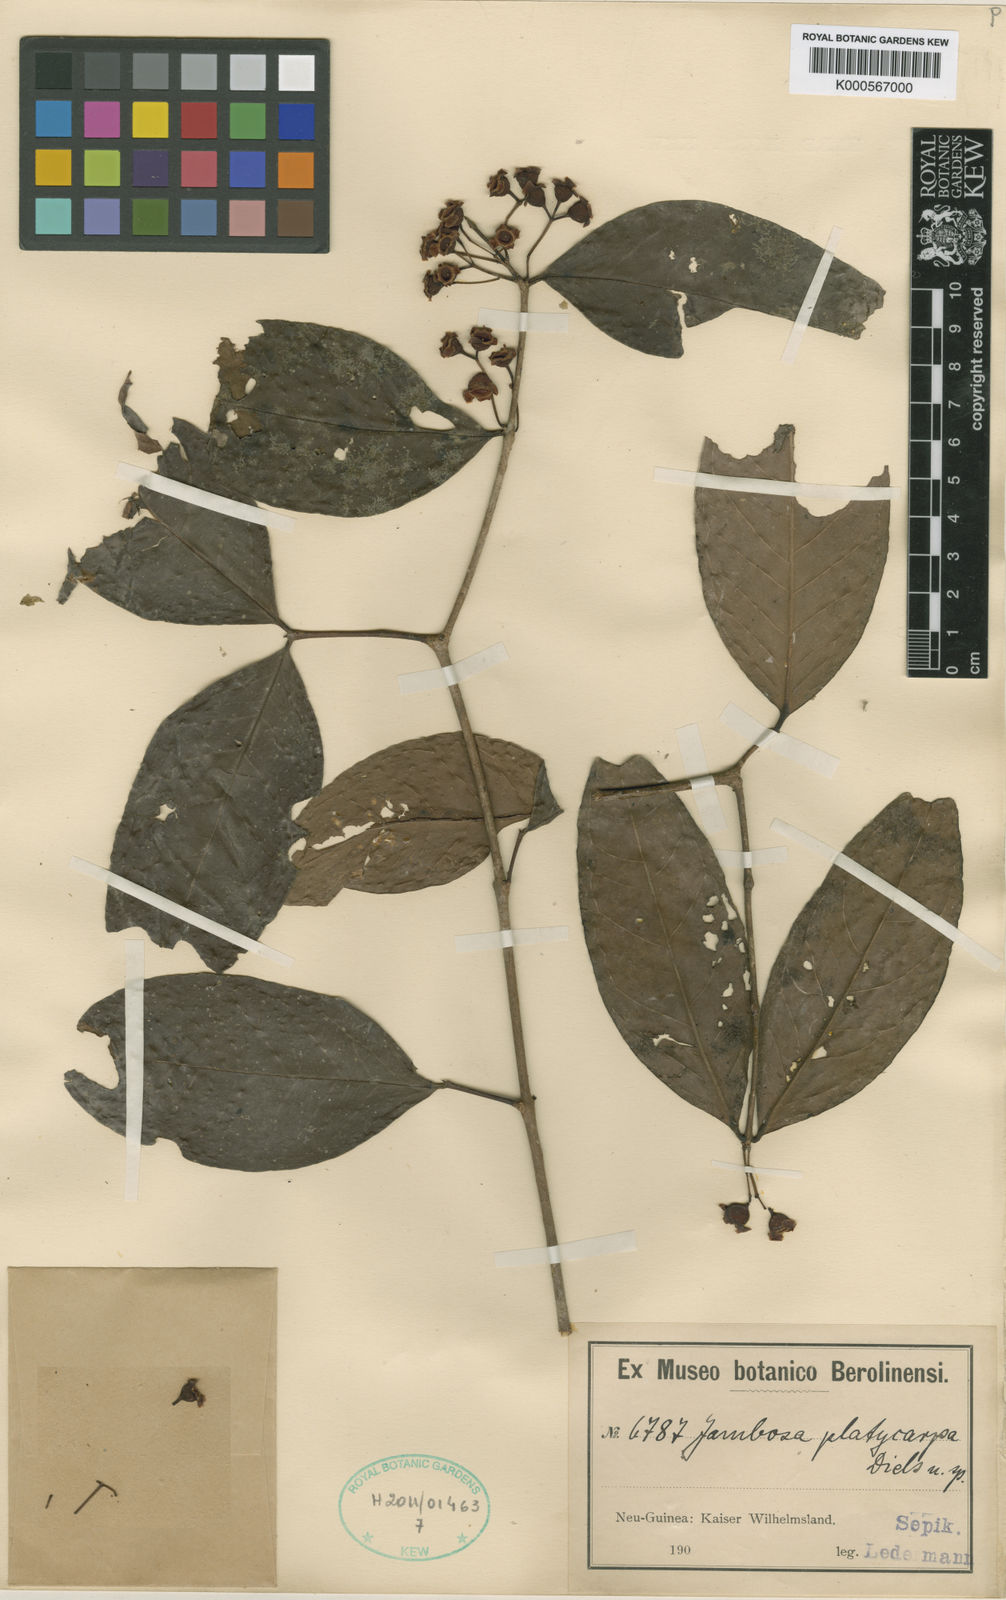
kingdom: Plantae
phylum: Tracheophyta
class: Magnoliopsida
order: Myrtales
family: Myrtaceae
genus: Syzygium
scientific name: Syzygium platycarpum
